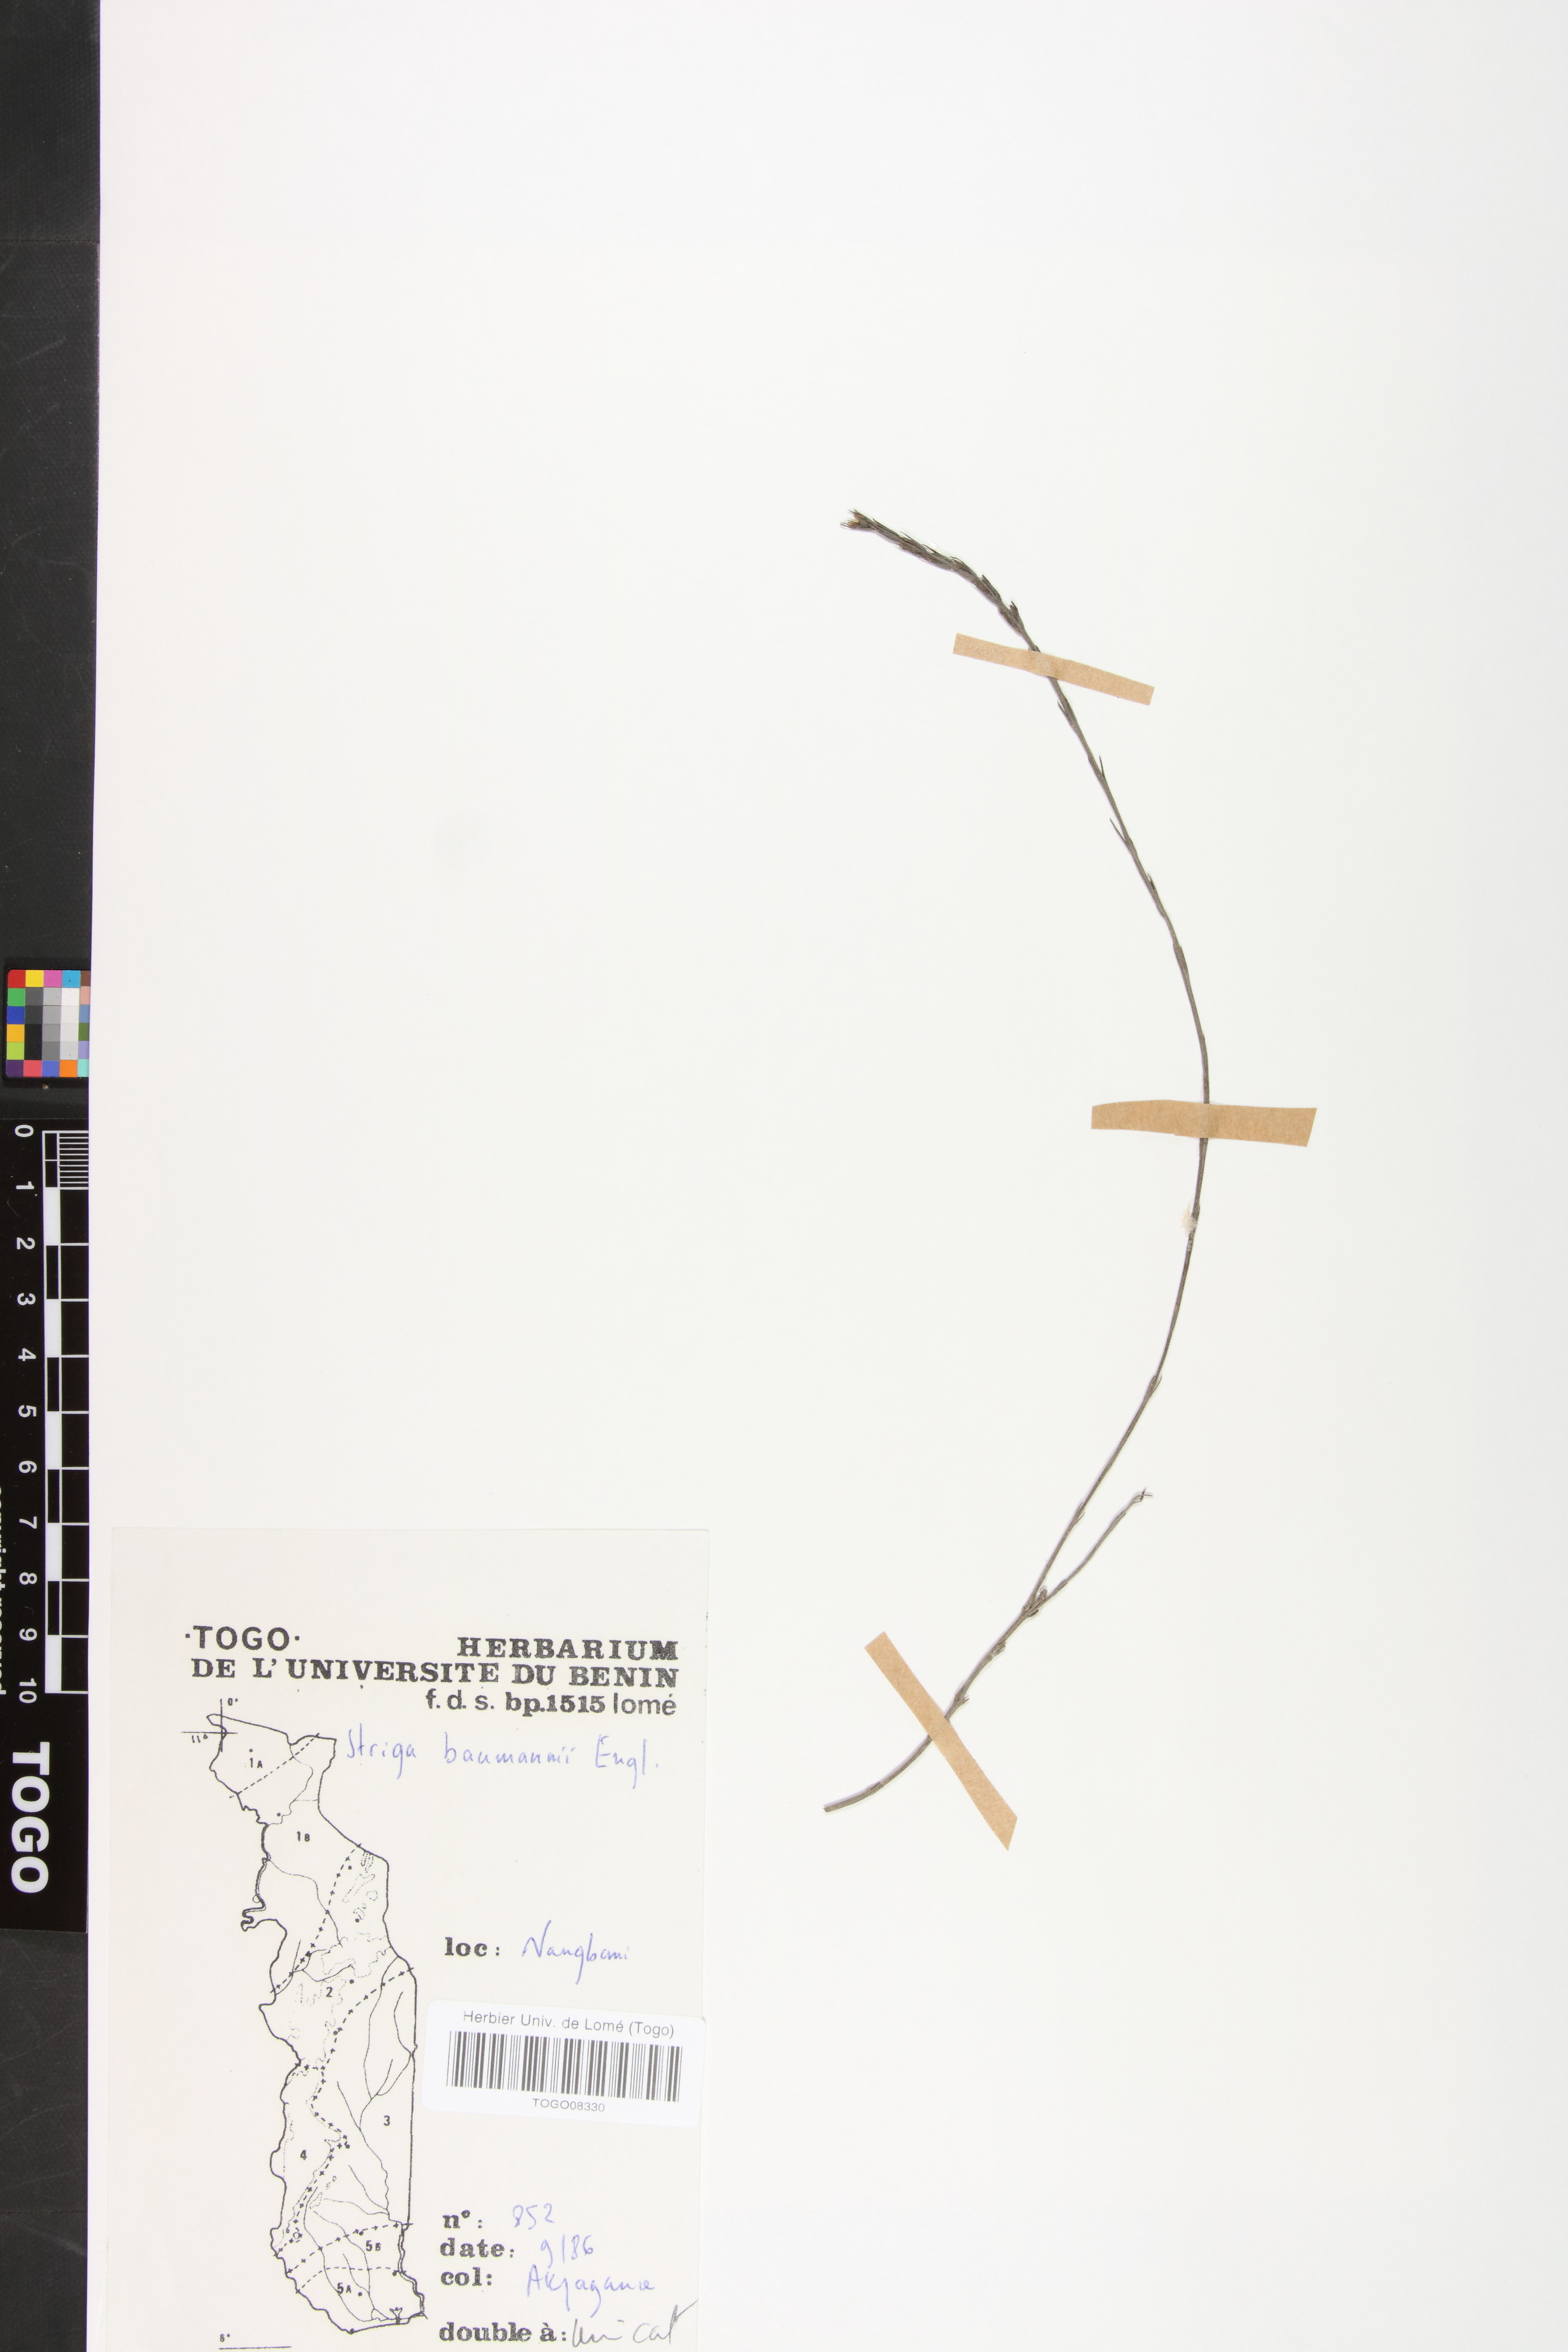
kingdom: Plantae
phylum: Tracheophyta
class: Magnoliopsida
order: Lamiales
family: Orobanchaceae
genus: Striga
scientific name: Striga baumannii
